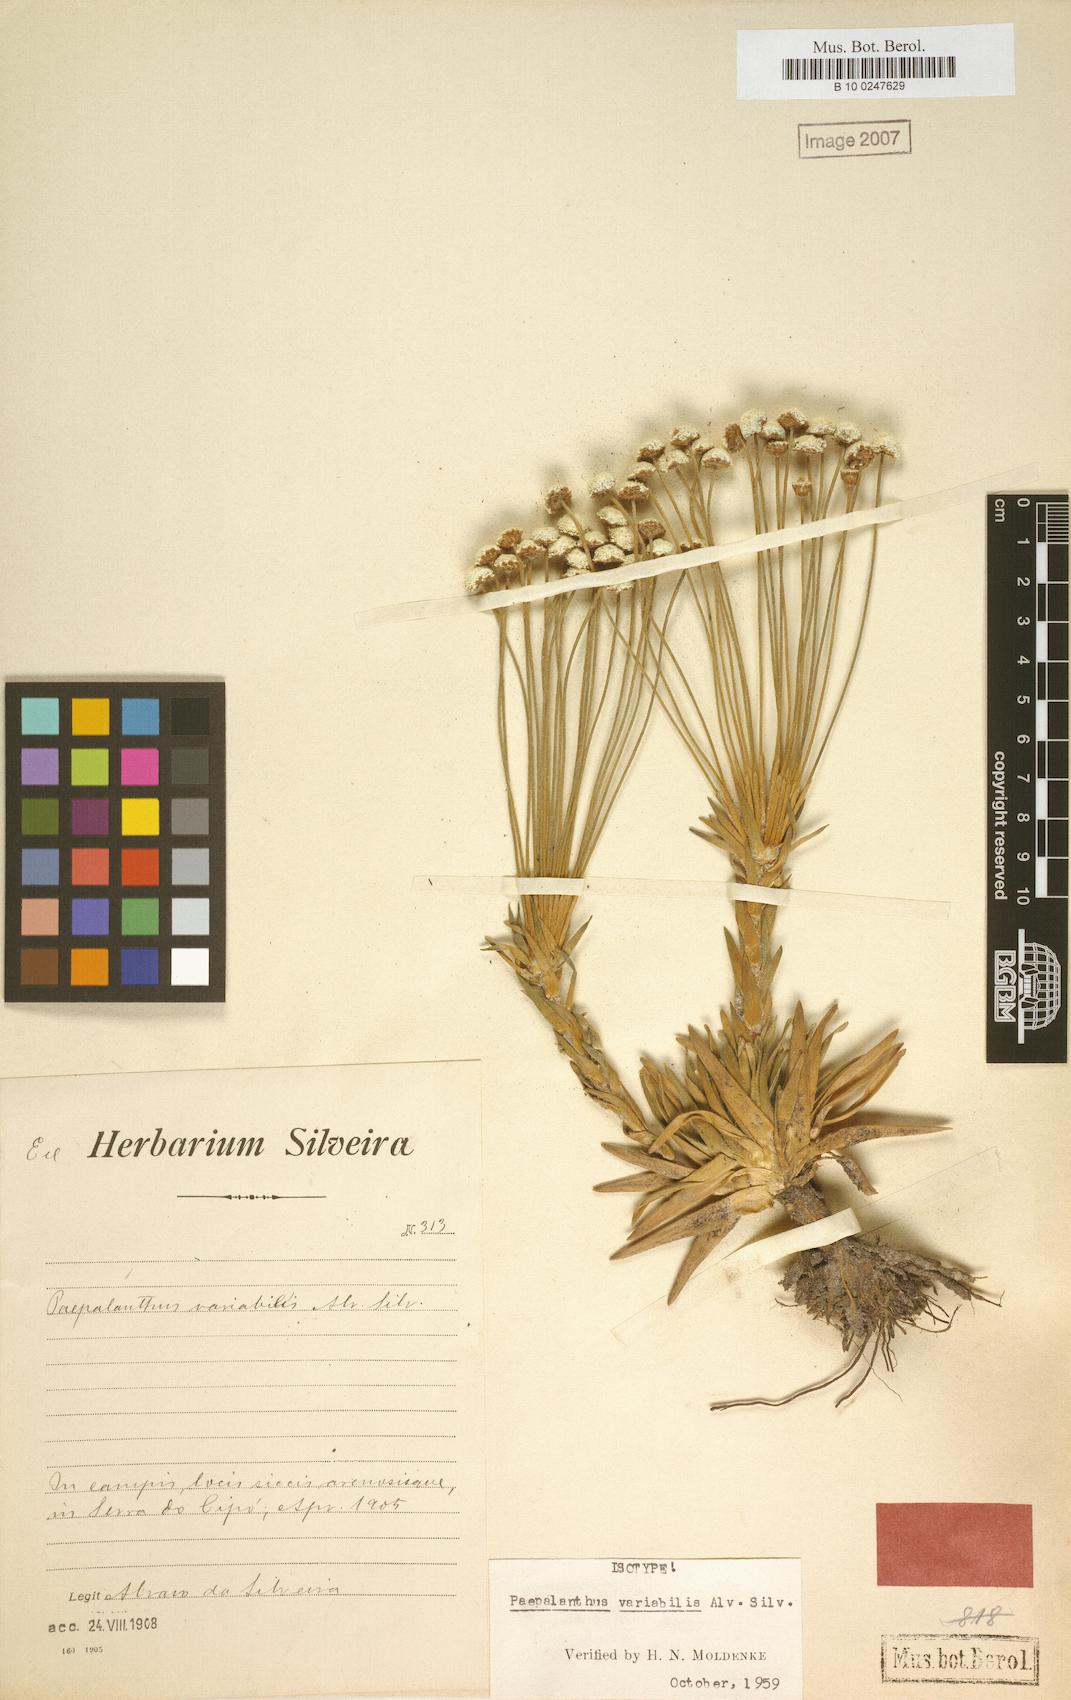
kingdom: Plantae
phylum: Tracheophyta
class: Liliopsida
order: Poales
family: Eriocaulaceae
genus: Paepalanthus
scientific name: Paepalanthus bahiensis
